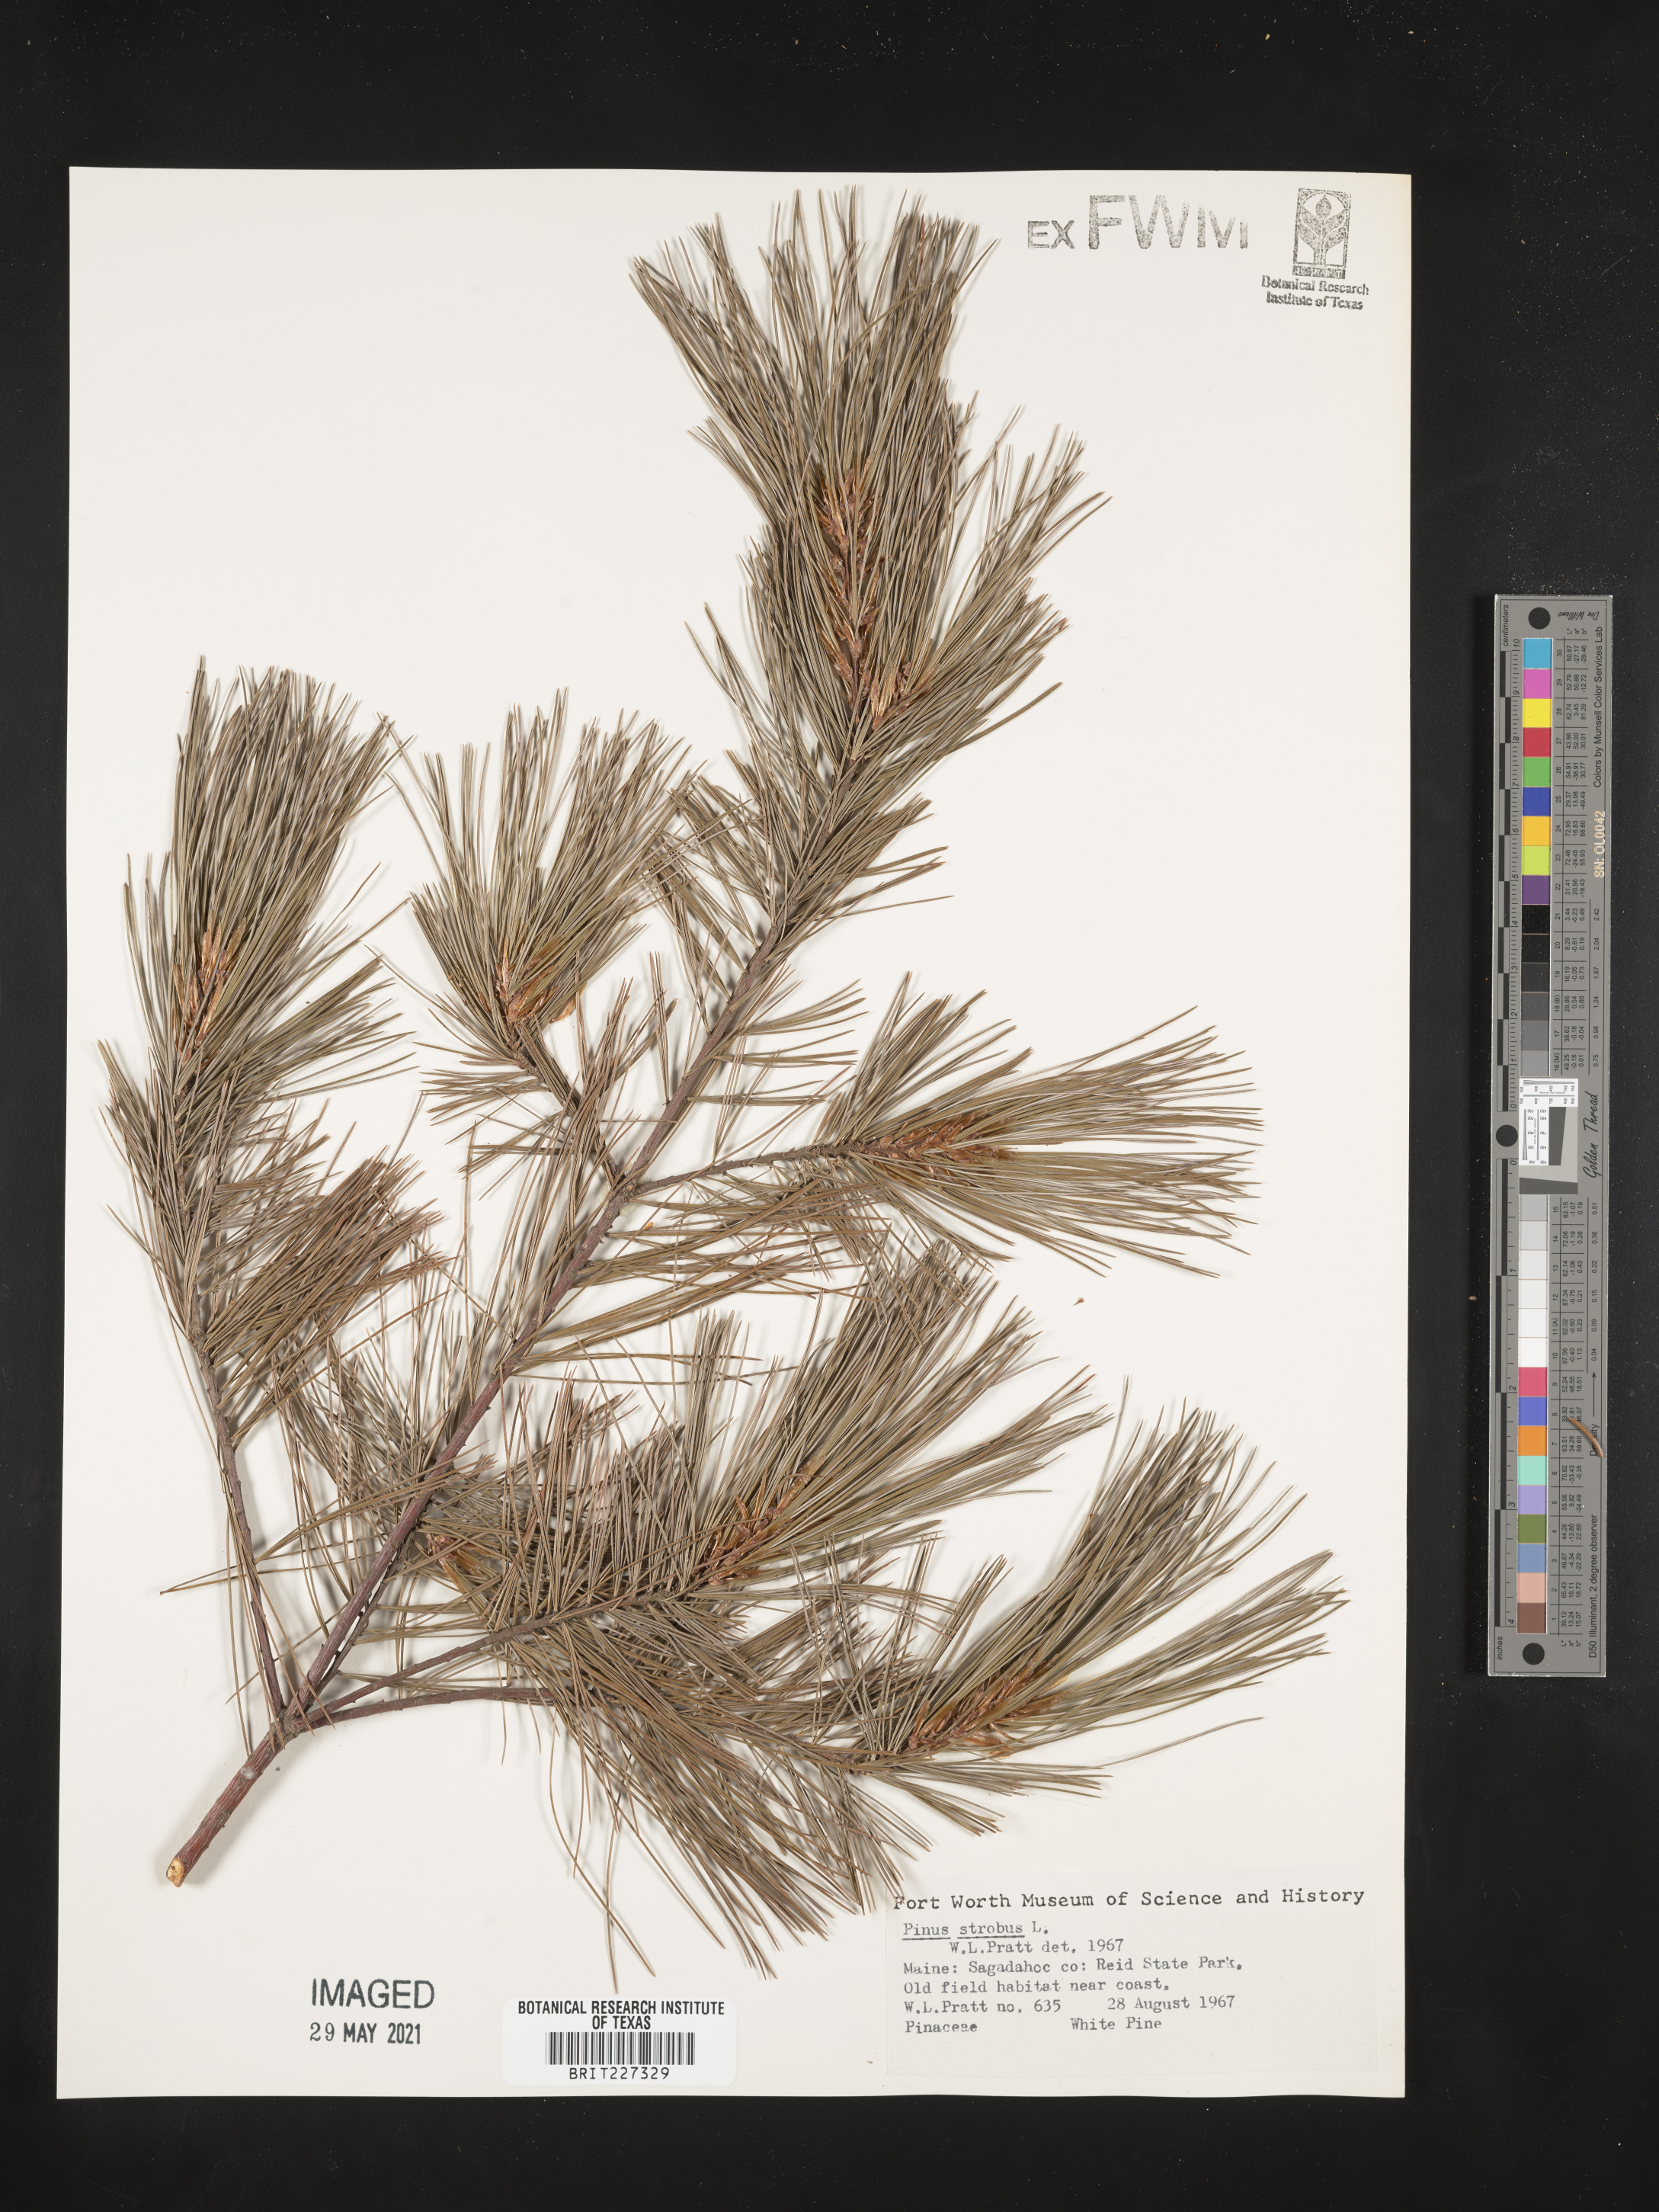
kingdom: Plantae
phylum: Tracheophyta
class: Pinopsida
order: Pinales
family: Pinaceae
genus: Pinus
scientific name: Pinus strobus
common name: Weymouth pine
